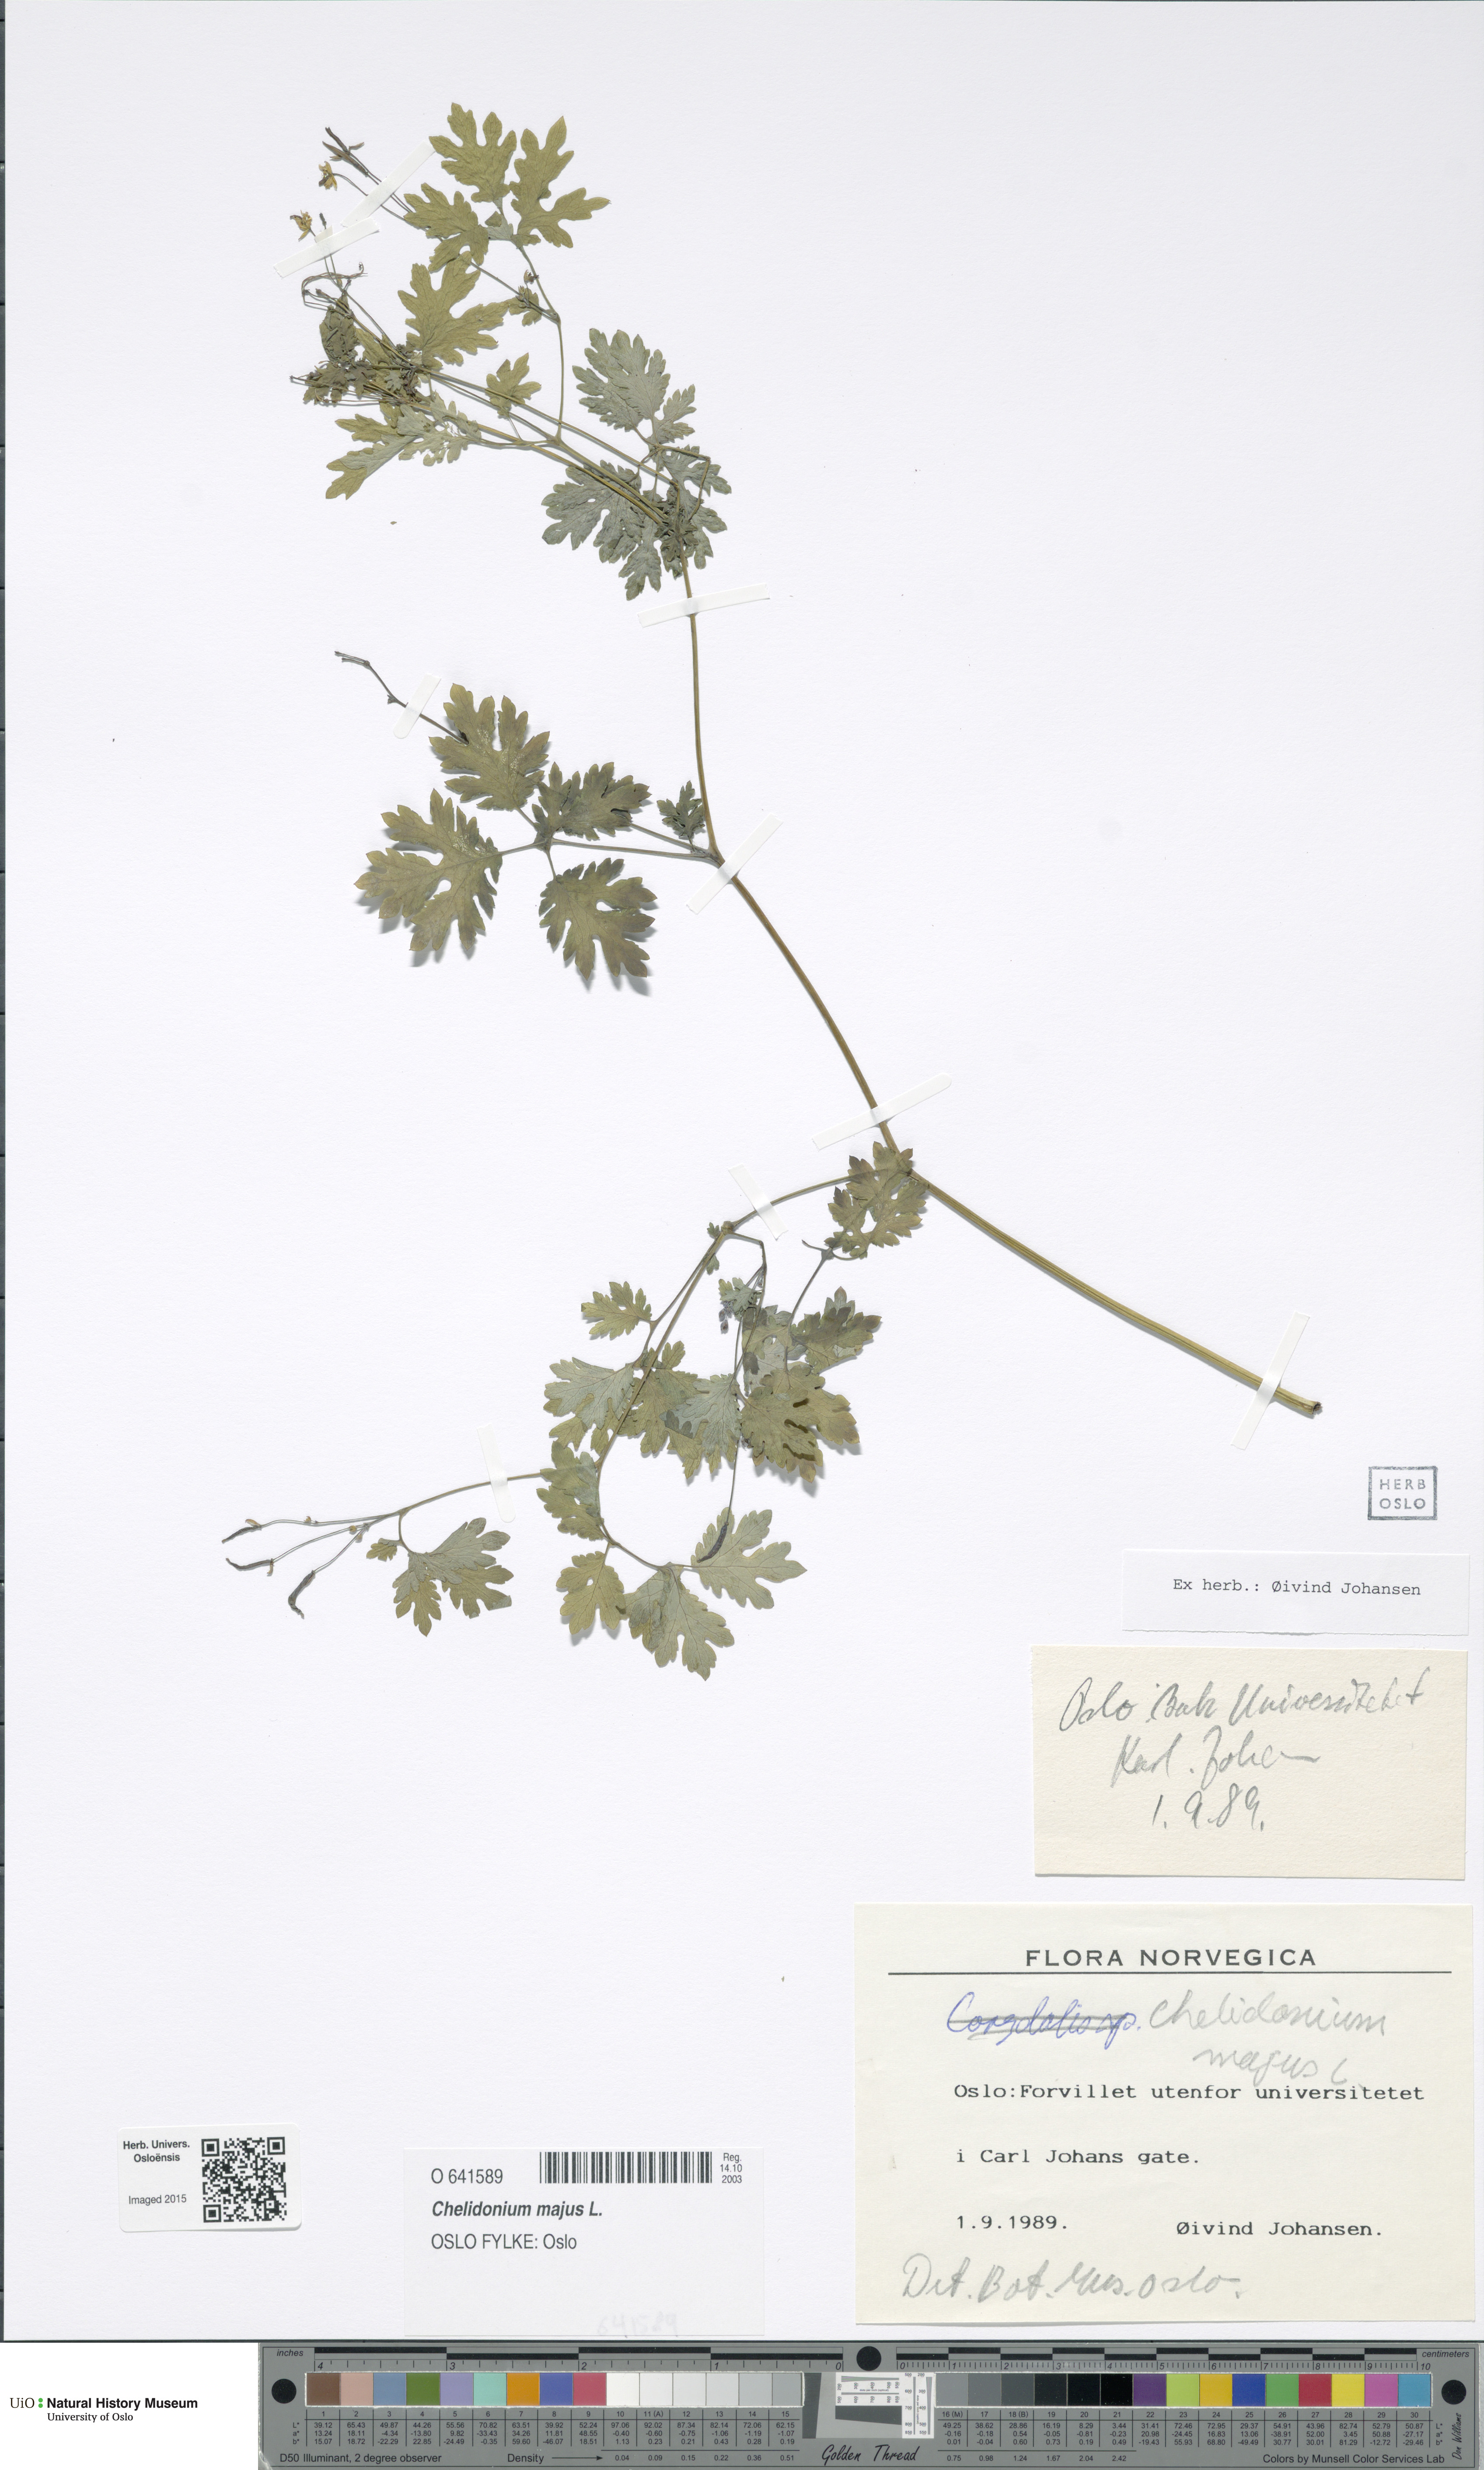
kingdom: Plantae
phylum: Tracheophyta
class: Magnoliopsida
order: Ranunculales
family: Papaveraceae
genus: Chelidonium
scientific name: Chelidonium majus
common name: Greater celandine
